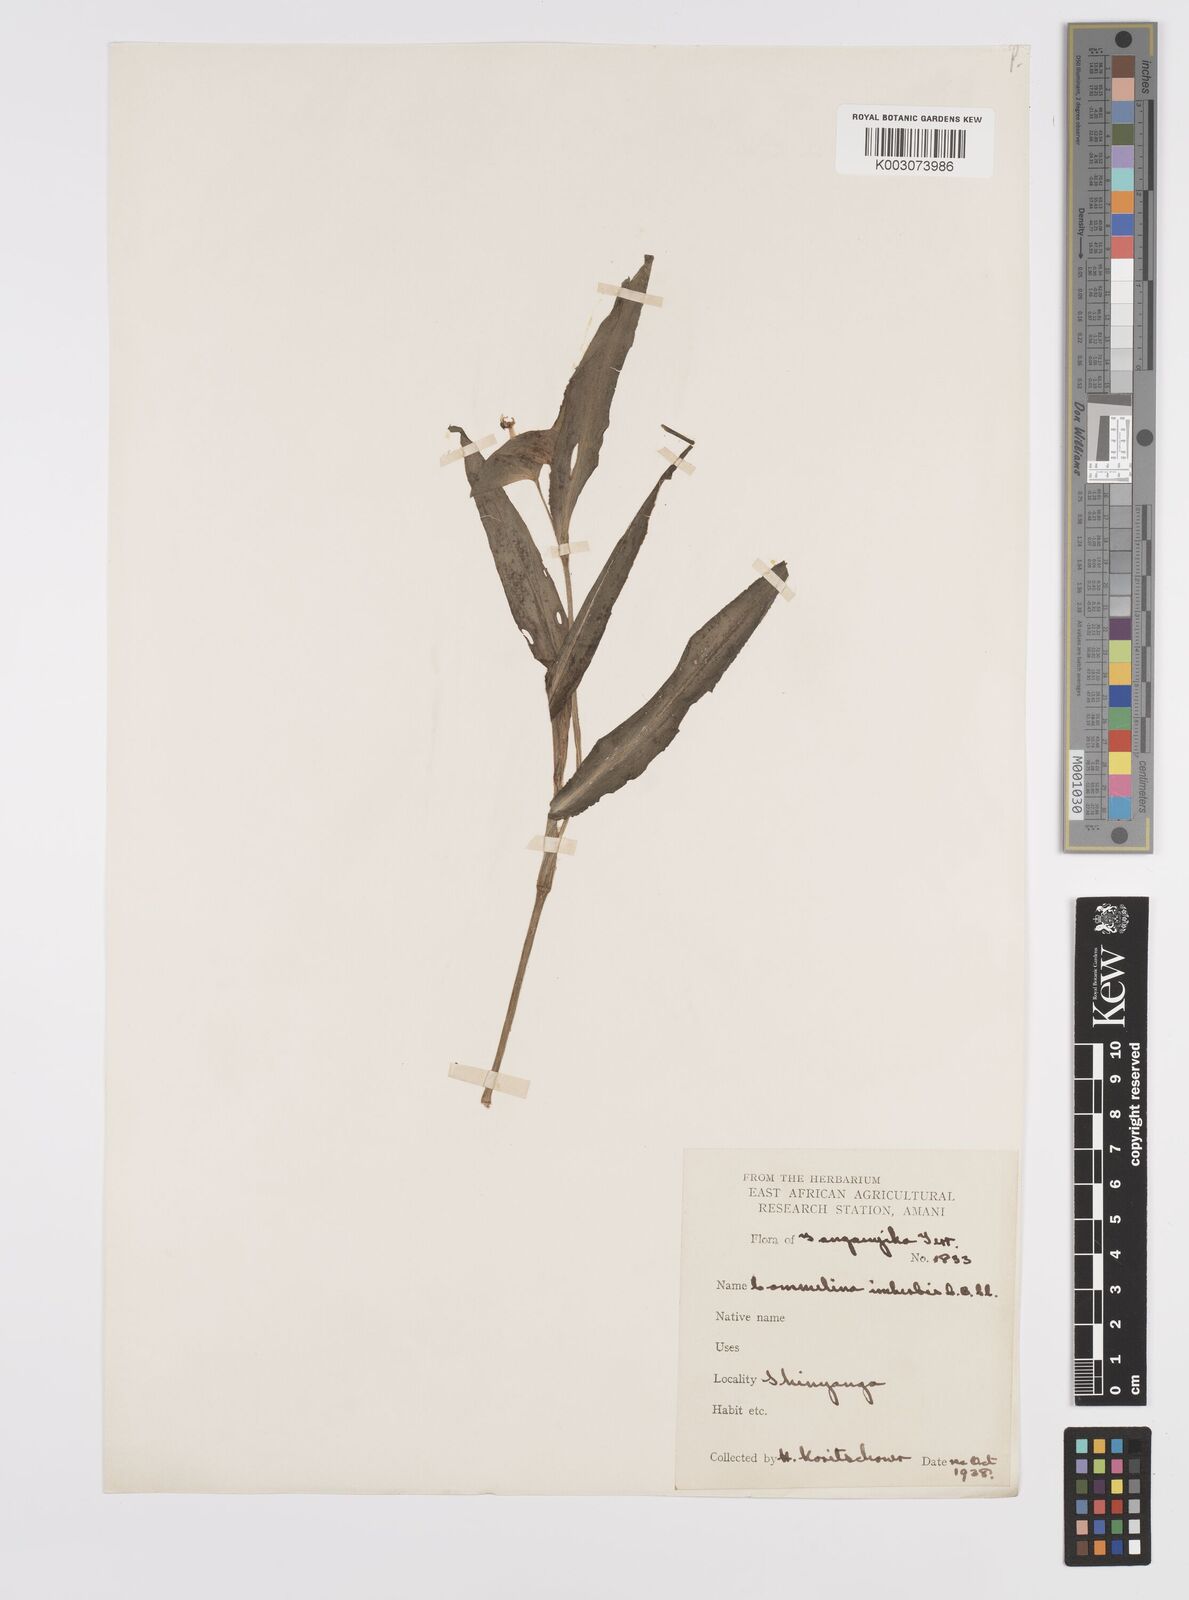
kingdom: Plantae
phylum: Tracheophyta
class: Liliopsida
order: Commelinales
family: Commelinaceae
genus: Commelina
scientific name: Commelina imberbis
